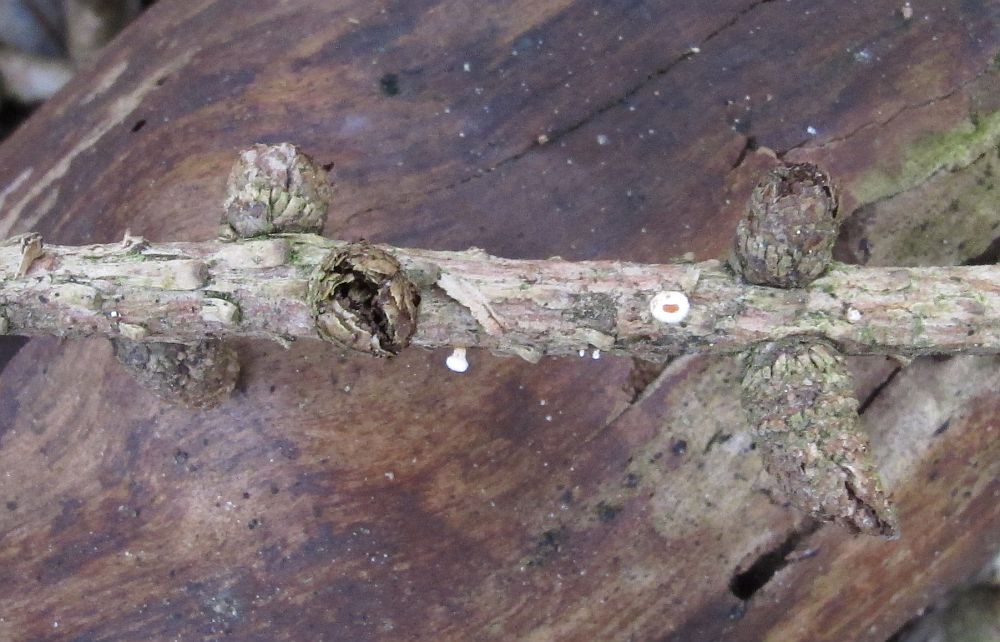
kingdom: Fungi
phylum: Ascomycota
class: Leotiomycetes
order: Helotiales
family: Lachnaceae
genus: Lachnellula
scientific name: Lachnellula occidentalis
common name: Larch disco
